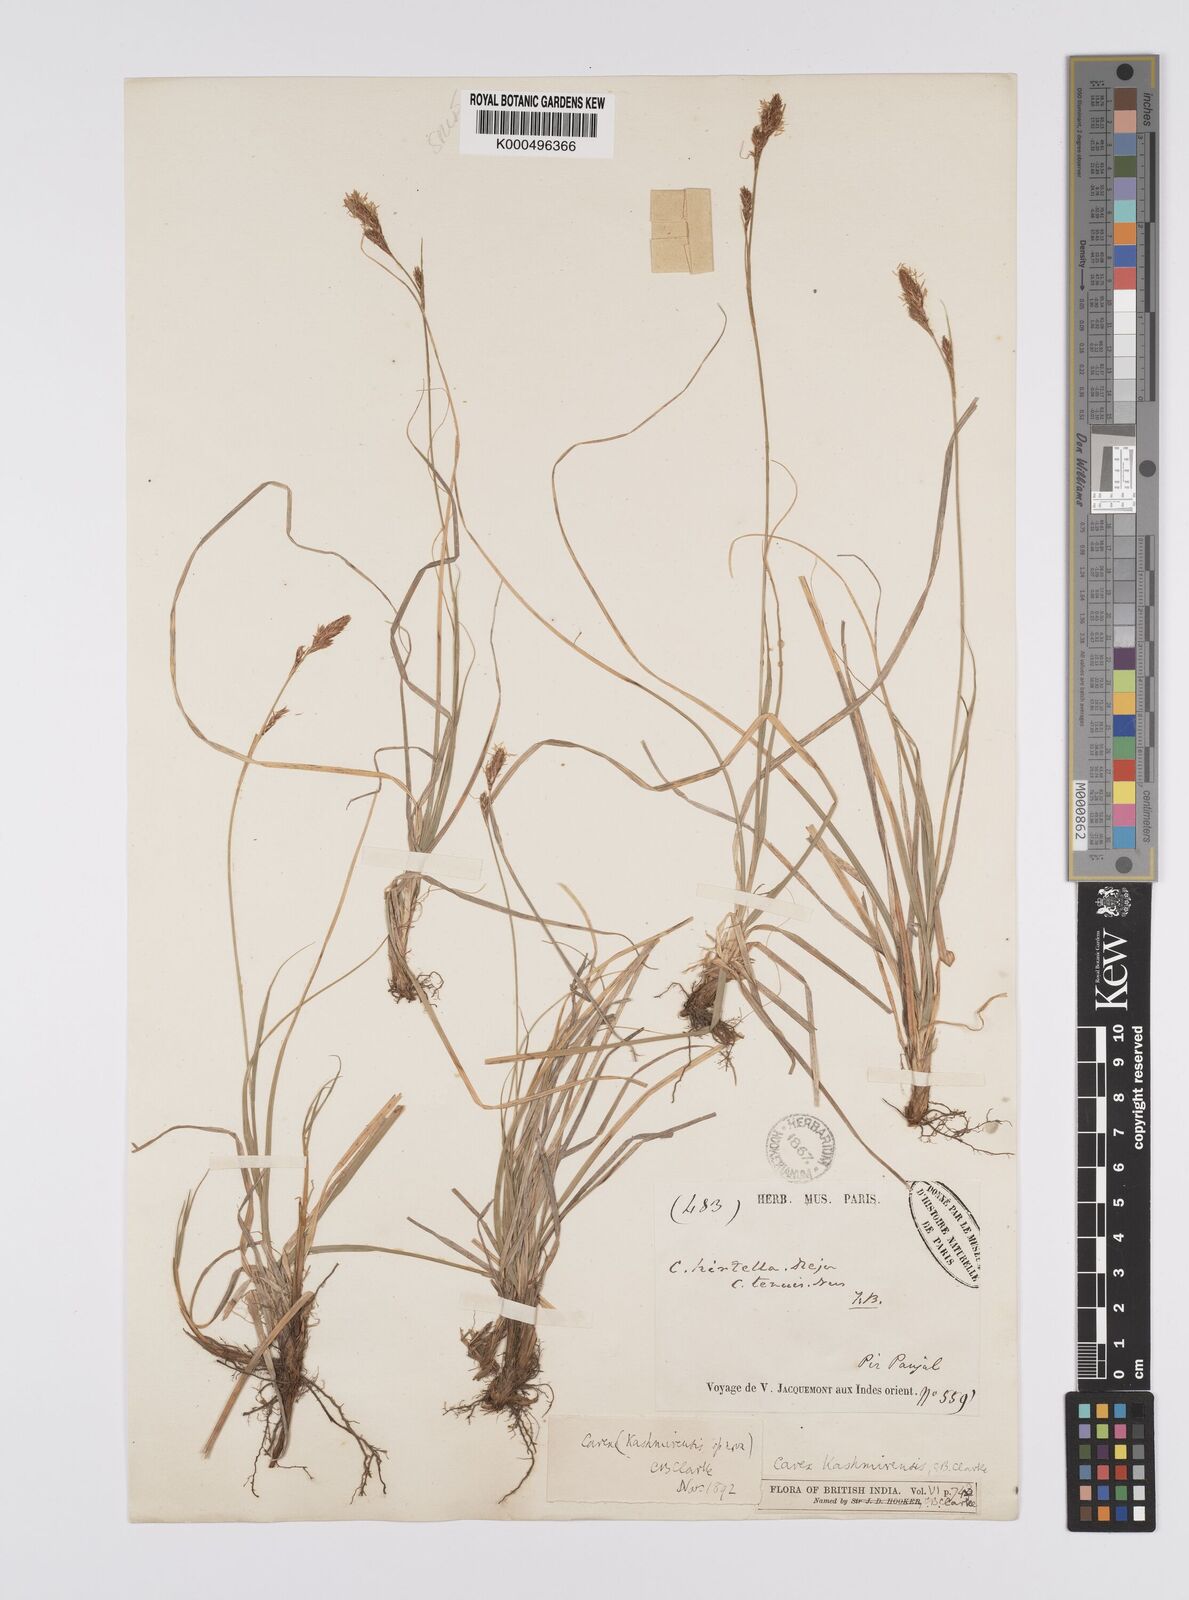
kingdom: Plantae
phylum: Tracheophyta
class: Liliopsida
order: Poales
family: Cyperaceae
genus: Carex
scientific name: Carex kashmirensis
